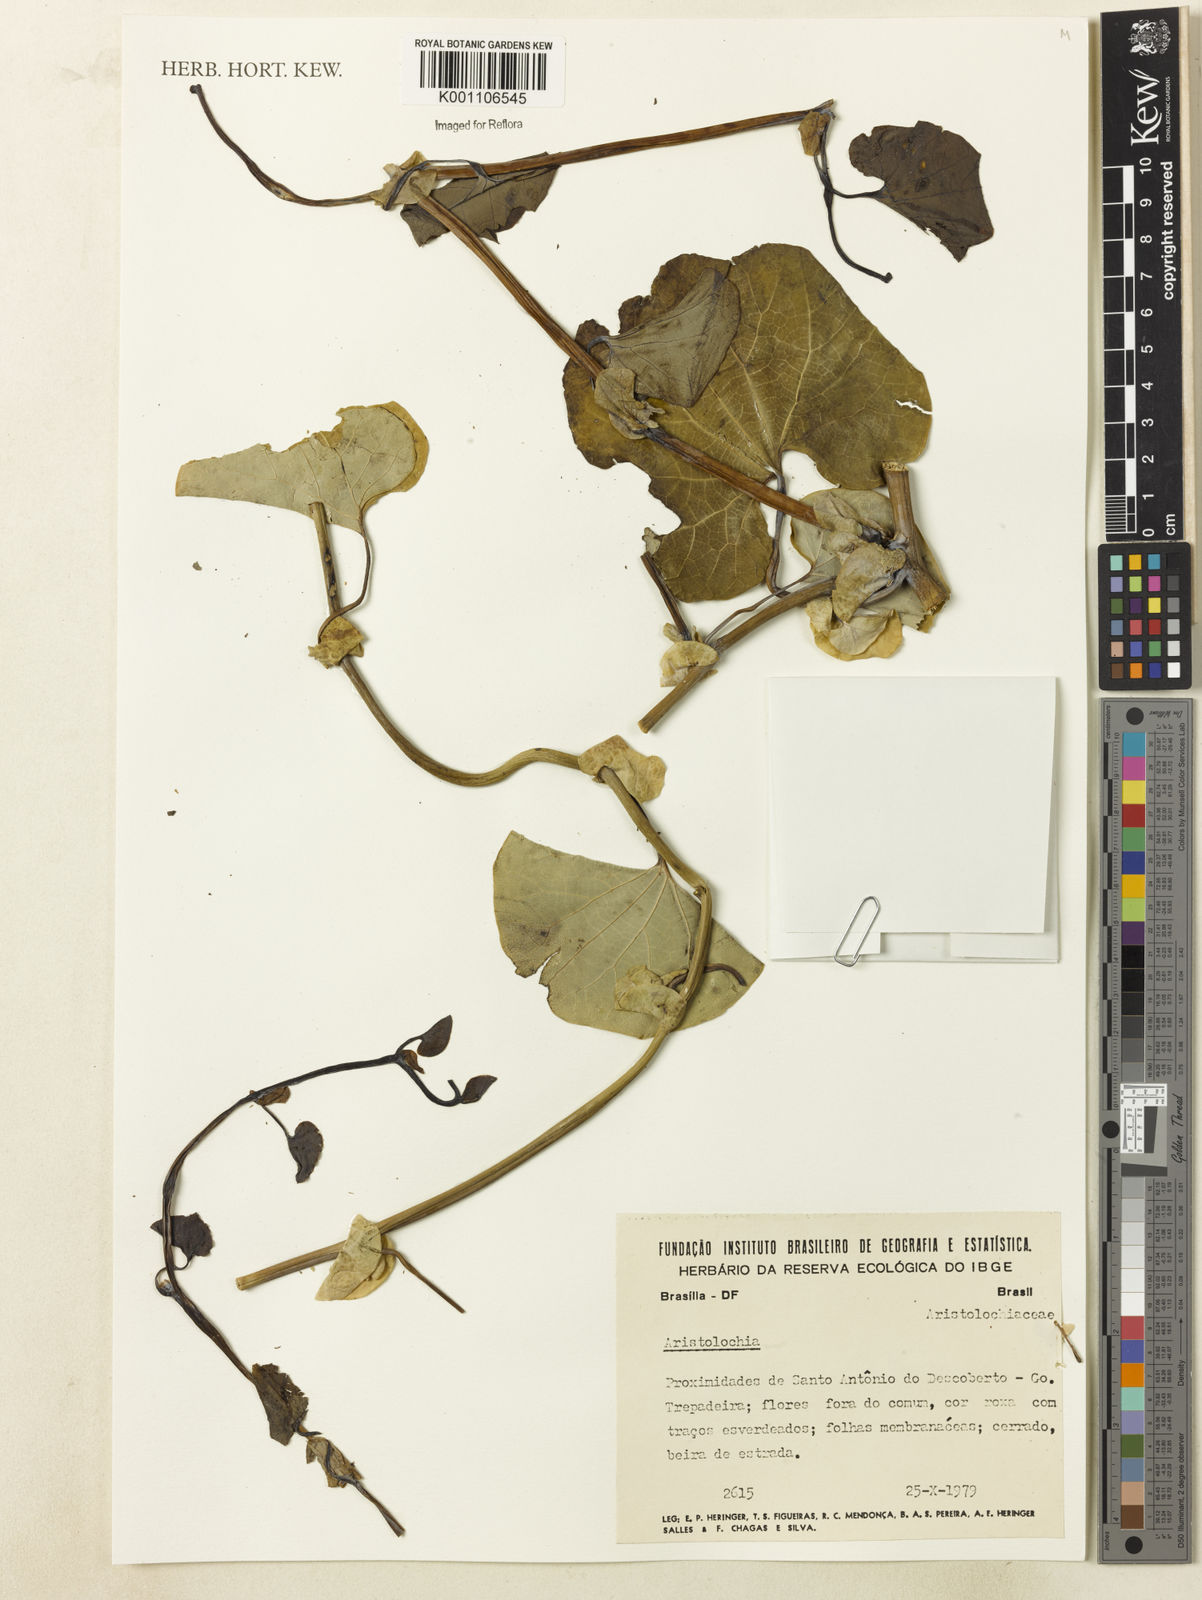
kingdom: Plantae
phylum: Tracheophyta
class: Magnoliopsida
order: Piperales
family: Aristolochiaceae
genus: Aristolochia
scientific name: Aristolochia
